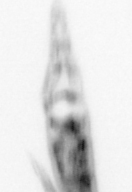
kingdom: Animalia
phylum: Arthropoda
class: Copepoda
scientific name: Copepoda
